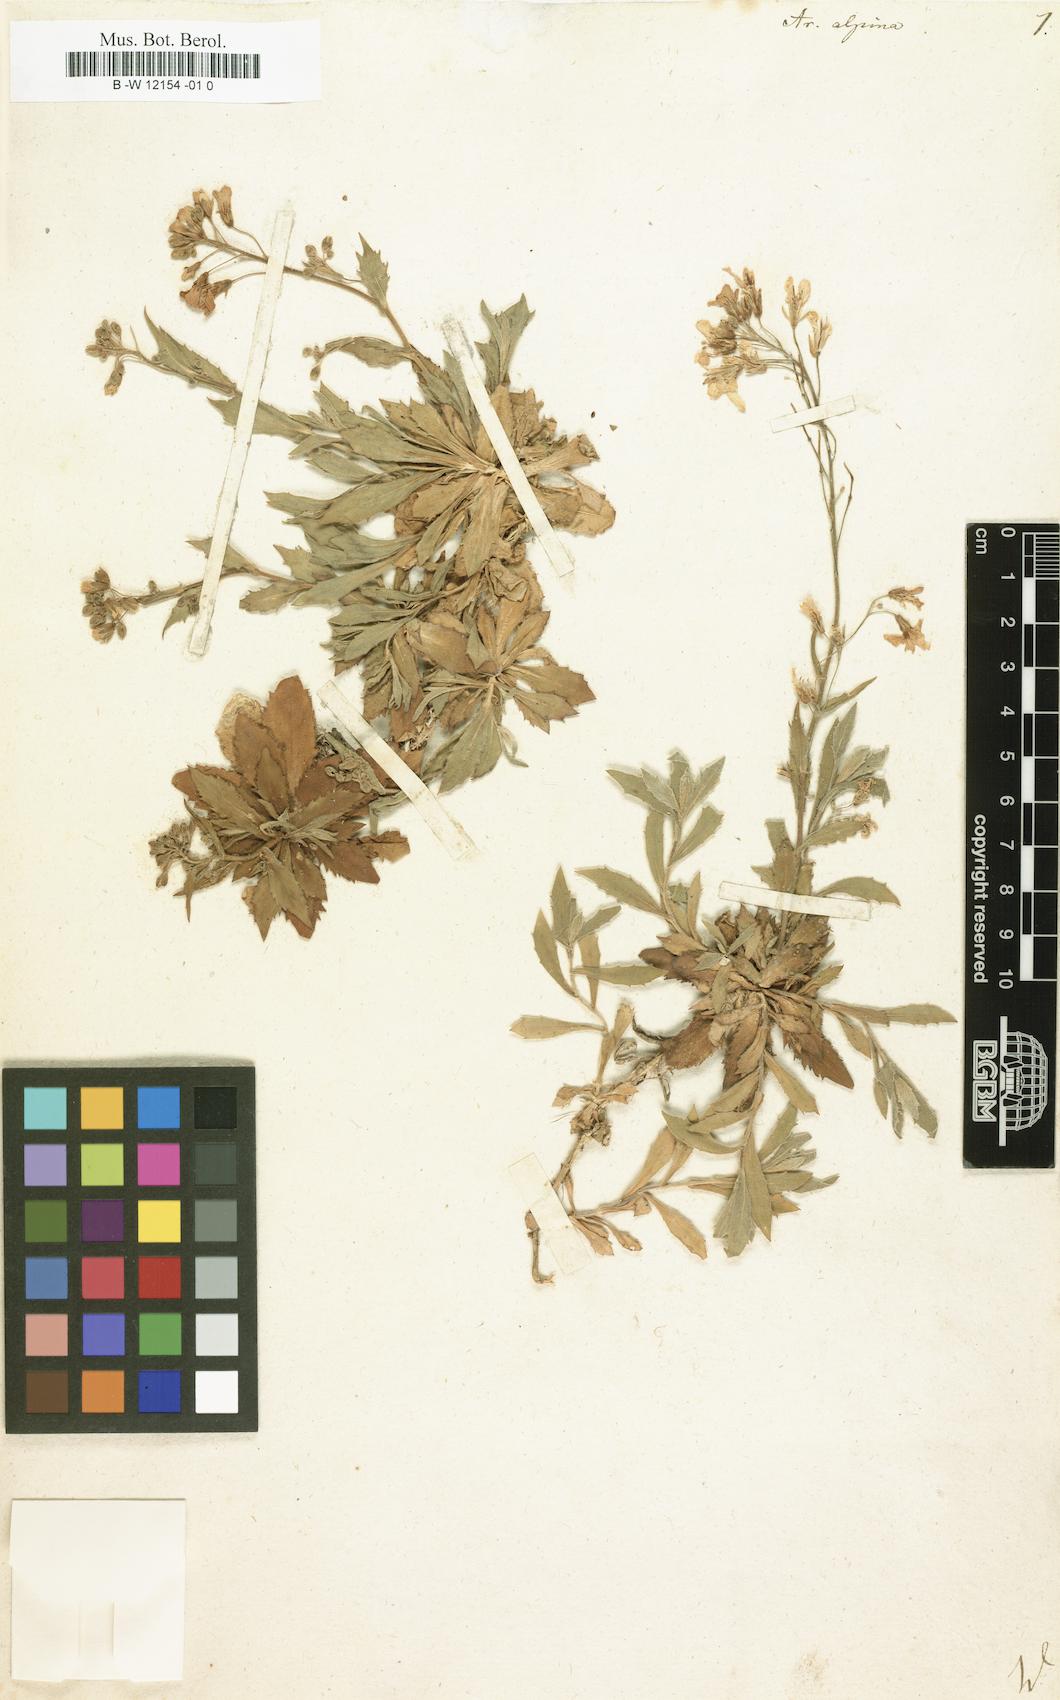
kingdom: Plantae
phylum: Tracheophyta
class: Magnoliopsida
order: Brassicales
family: Brassicaceae
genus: Arabis
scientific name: Arabis alpina
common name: Alpine rock-cress
